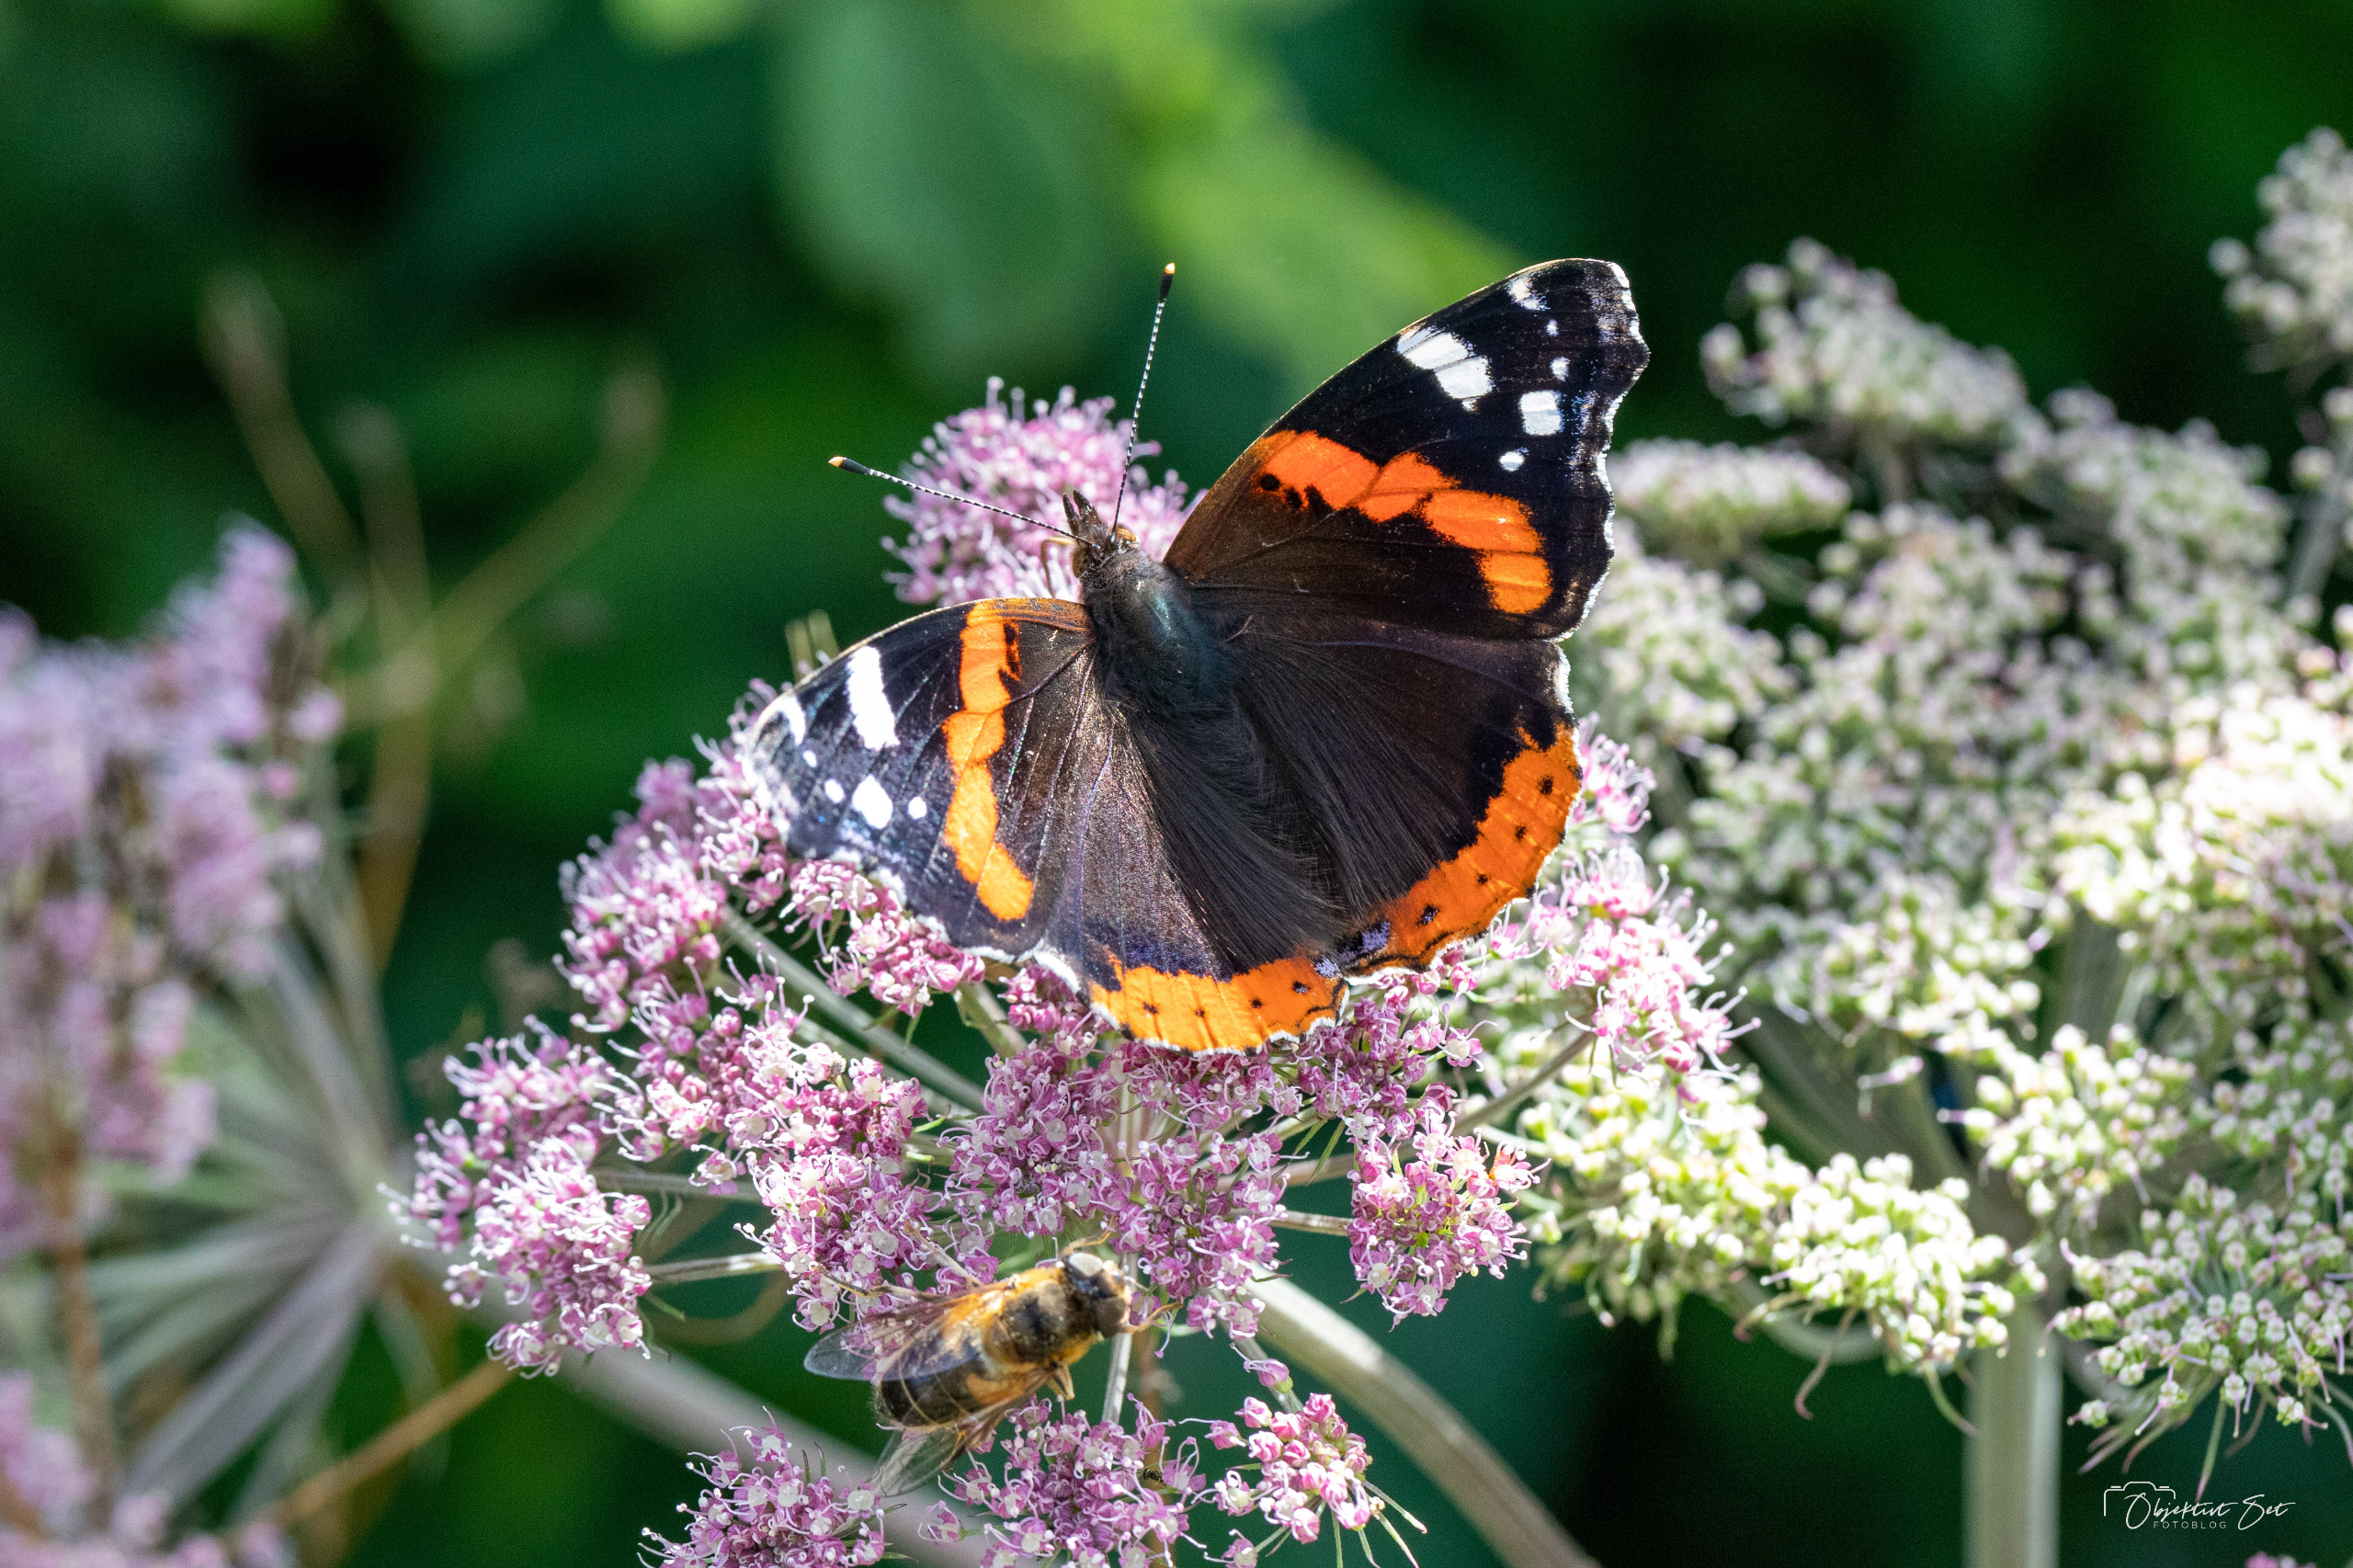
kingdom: Animalia
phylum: Arthropoda
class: Insecta
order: Lepidoptera
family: Nymphalidae
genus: Vanessa
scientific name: Vanessa atalanta
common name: Admiral
